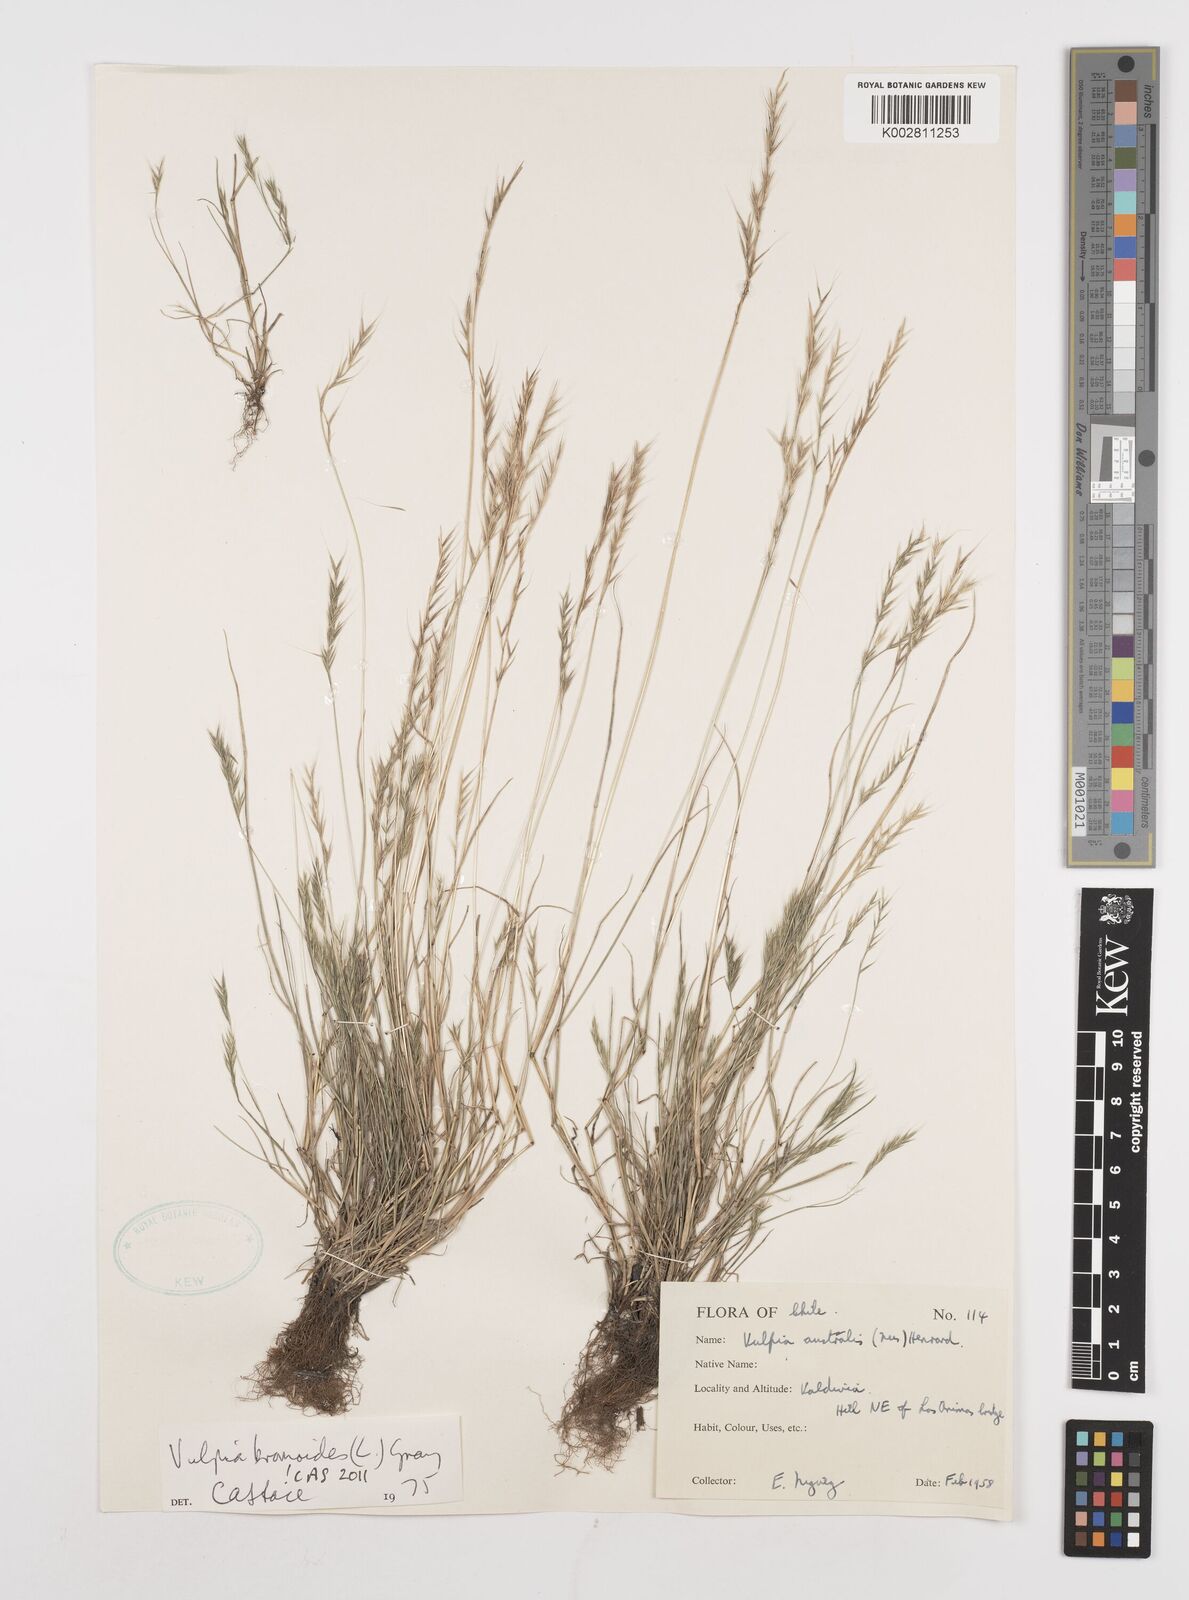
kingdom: Plantae
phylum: Tracheophyta
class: Liliopsida
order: Poales
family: Poaceae
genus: Festuca
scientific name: Festuca bromoides
